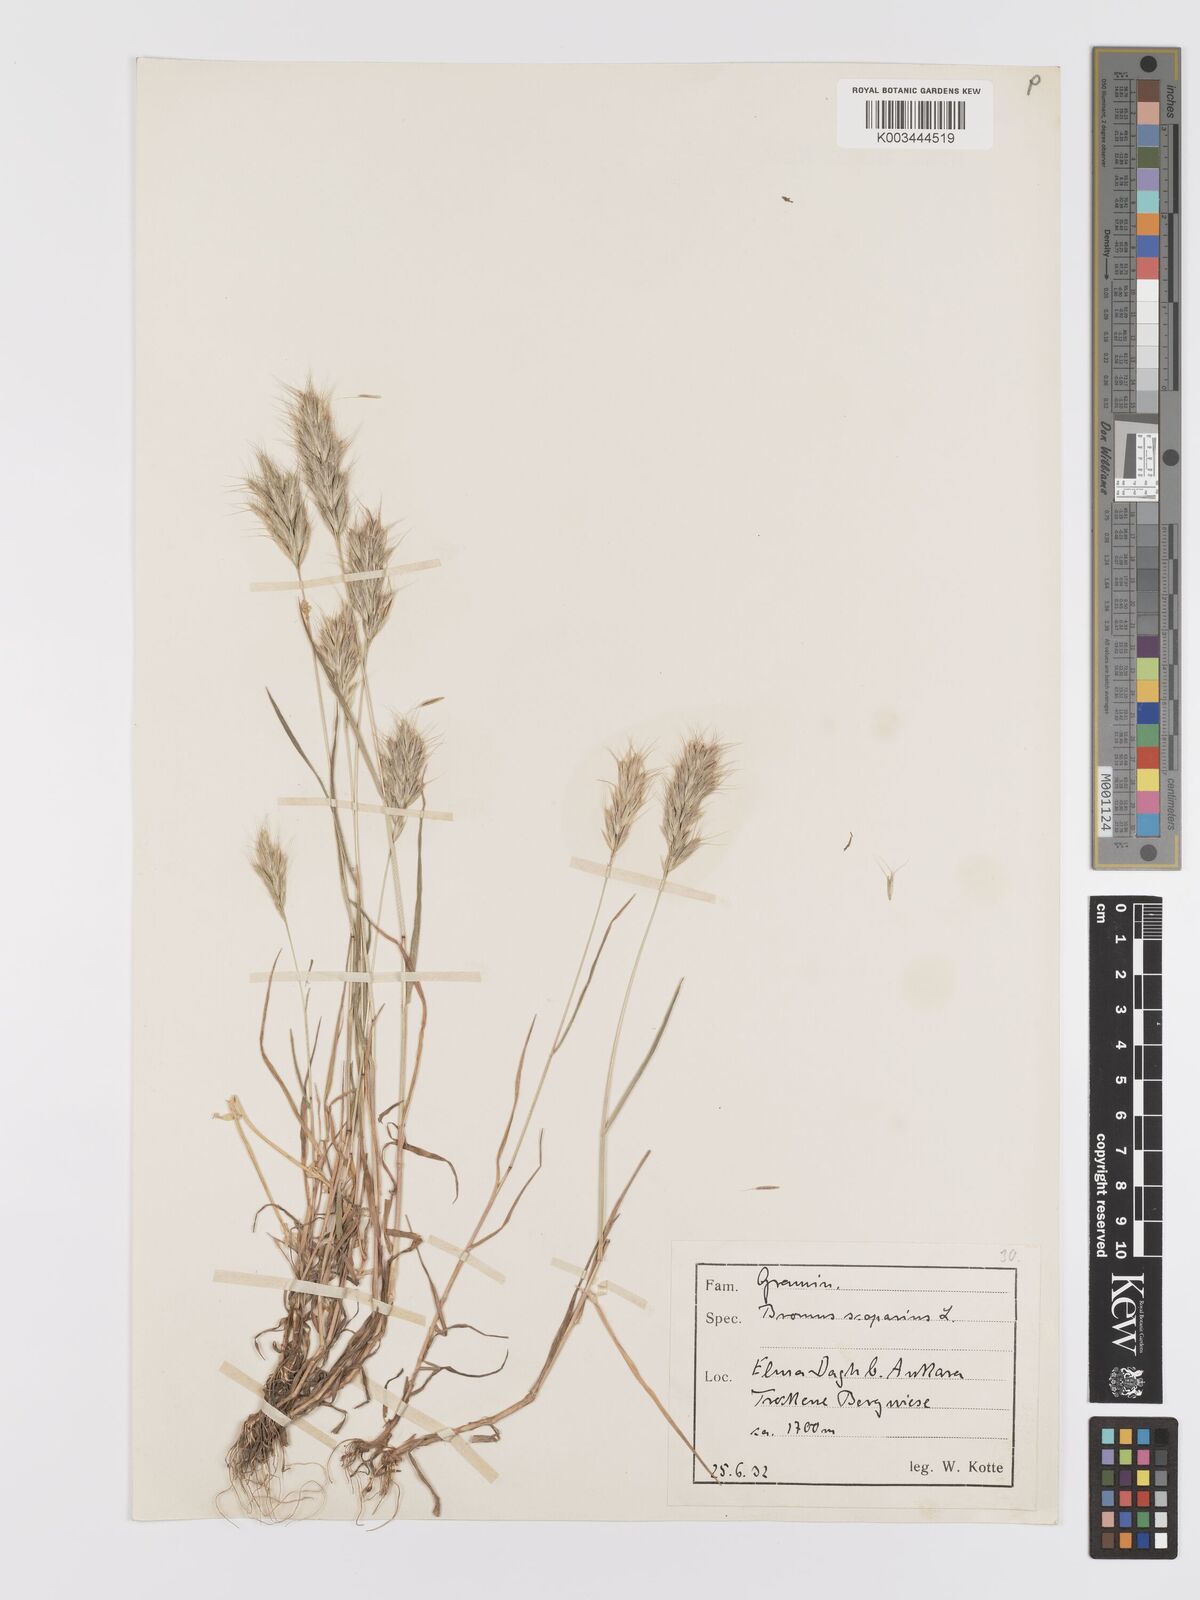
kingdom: Plantae
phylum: Tracheophyta
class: Liliopsida
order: Poales
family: Poaceae
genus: Bromus
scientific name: Bromus scoparius
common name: Broom brome
